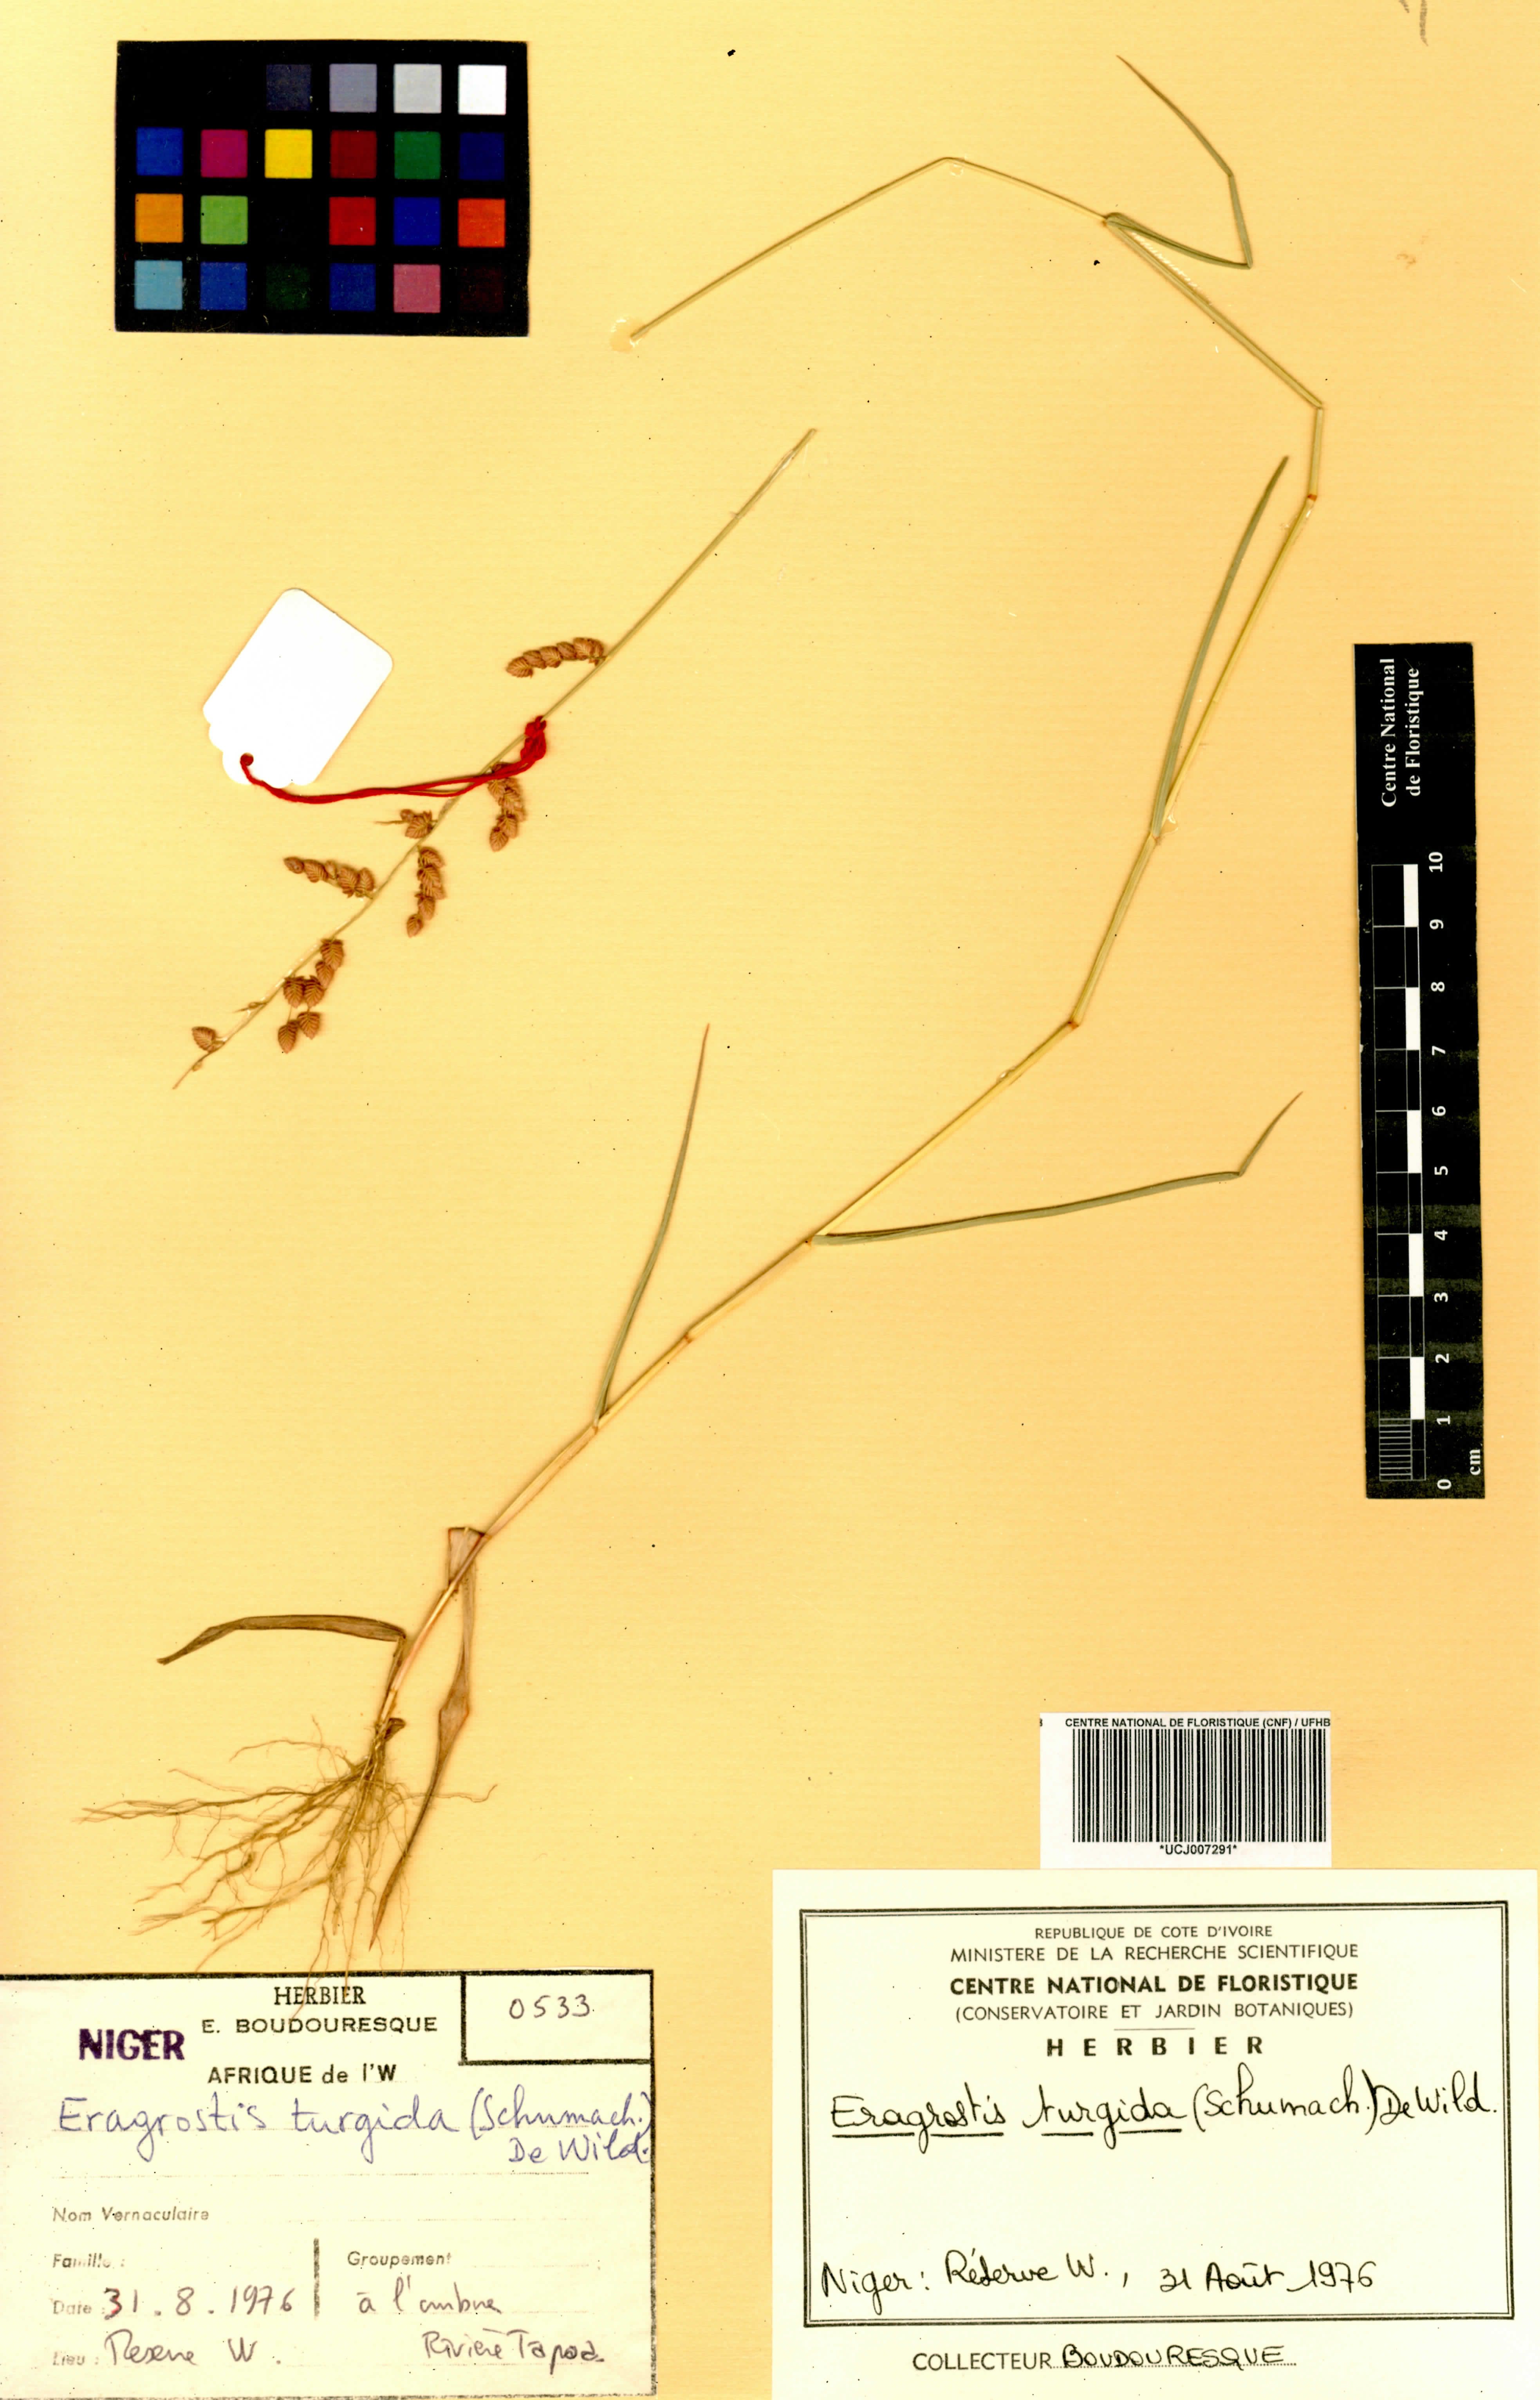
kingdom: Plantae
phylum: Tracheophyta
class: Liliopsida
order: Poales
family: Poaceae
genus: Eragrostis
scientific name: Eragrostis turgida
